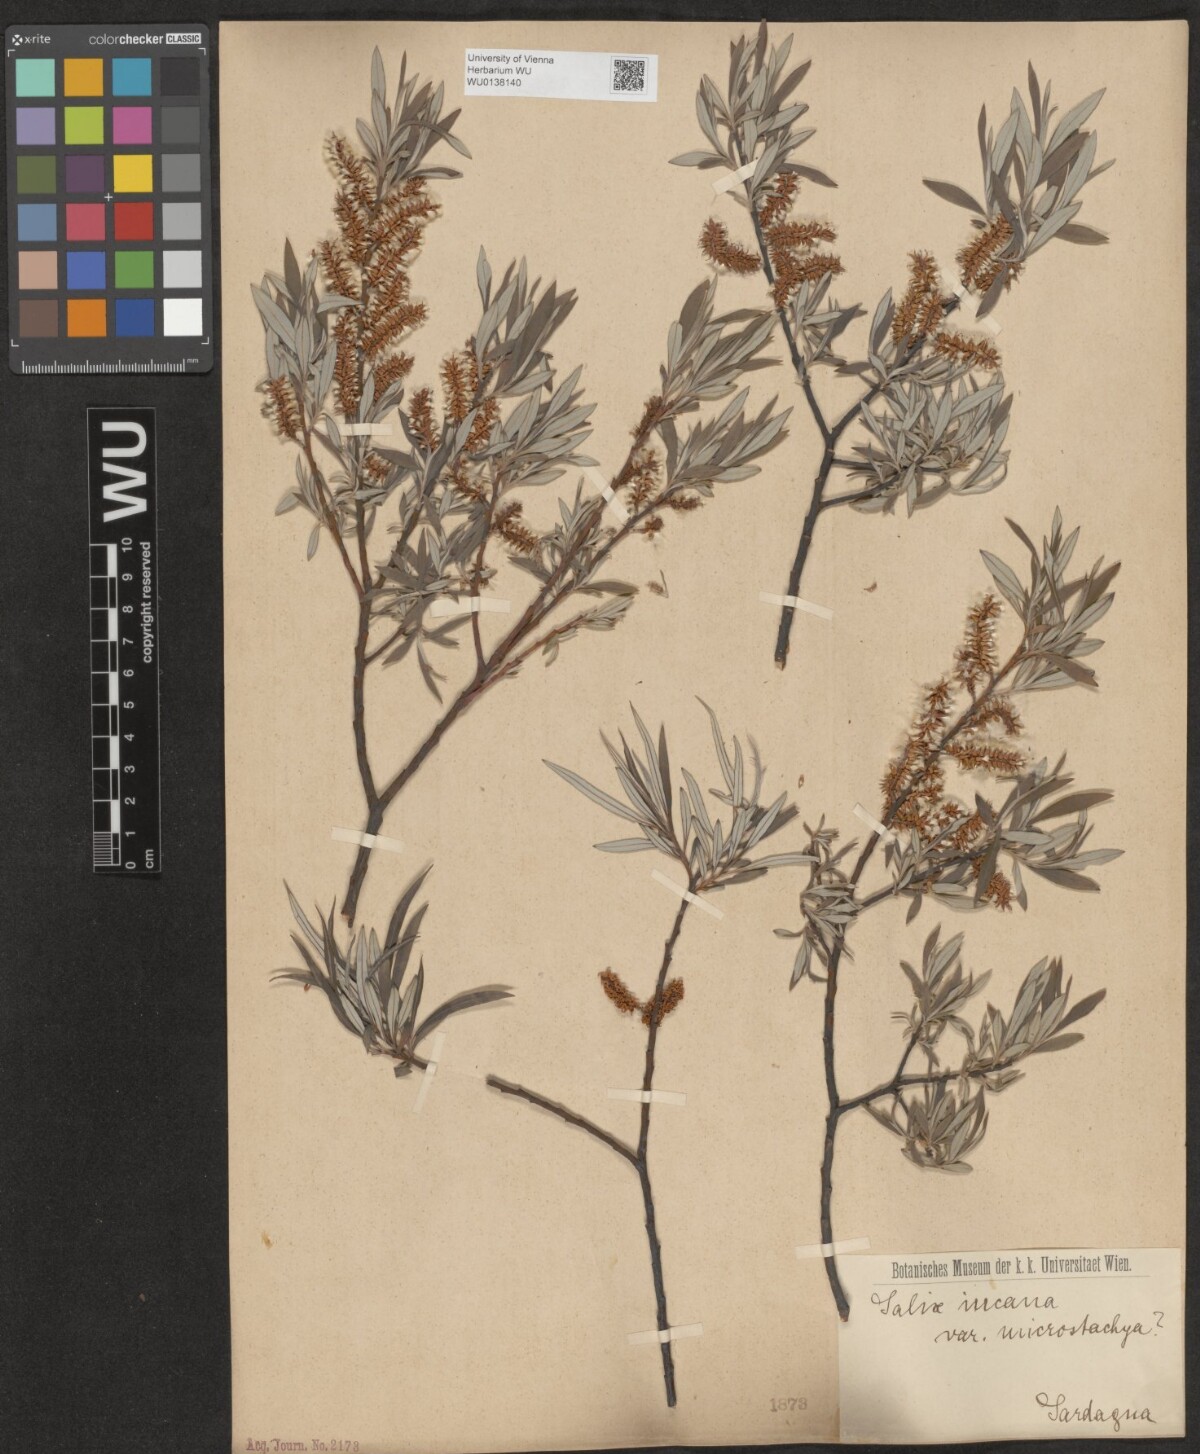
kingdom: Plantae
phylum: Tracheophyta
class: Magnoliopsida
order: Malpighiales
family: Salicaceae
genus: Salix
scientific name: Salix eleagnos
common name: Elaeagnus willow
